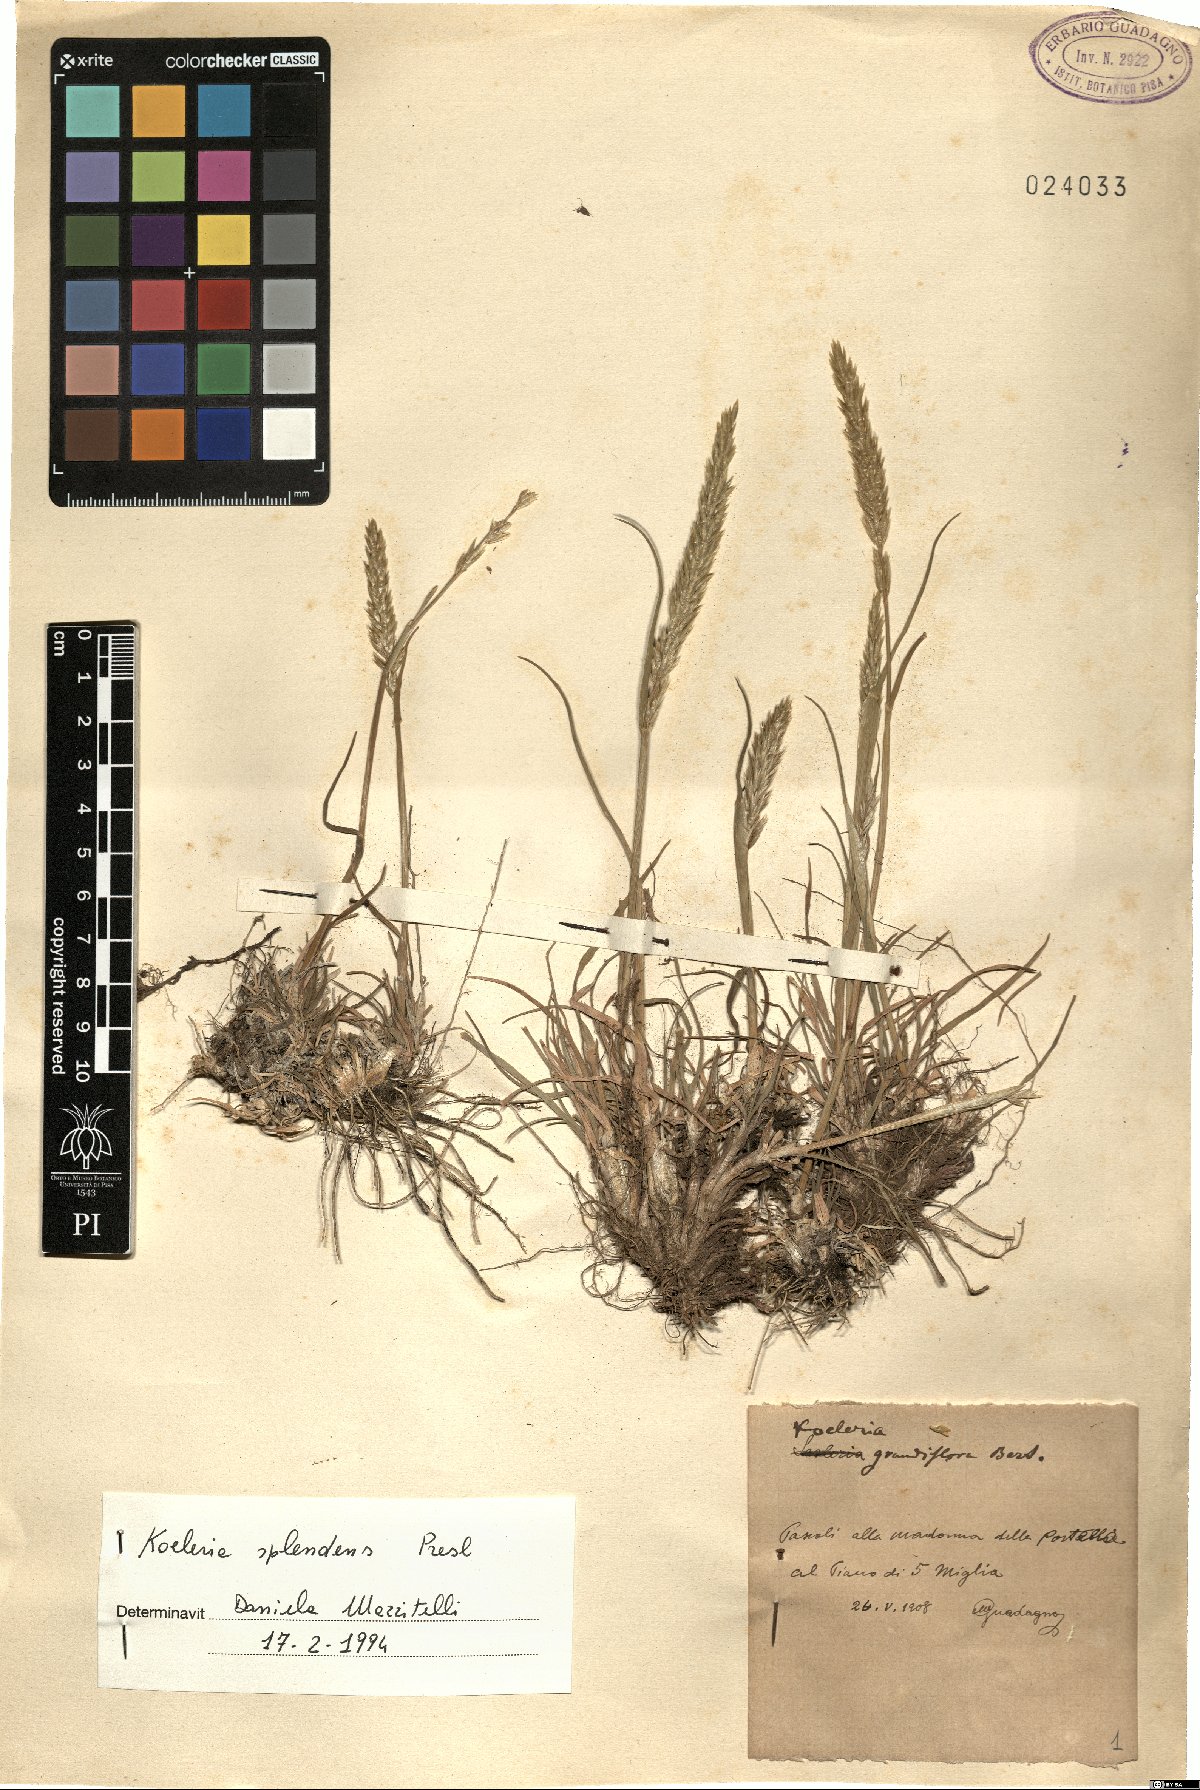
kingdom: Plantae
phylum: Tracheophyta
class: Liliopsida
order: Poales
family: Poaceae
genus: Koeleria
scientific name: Koeleria splendens
